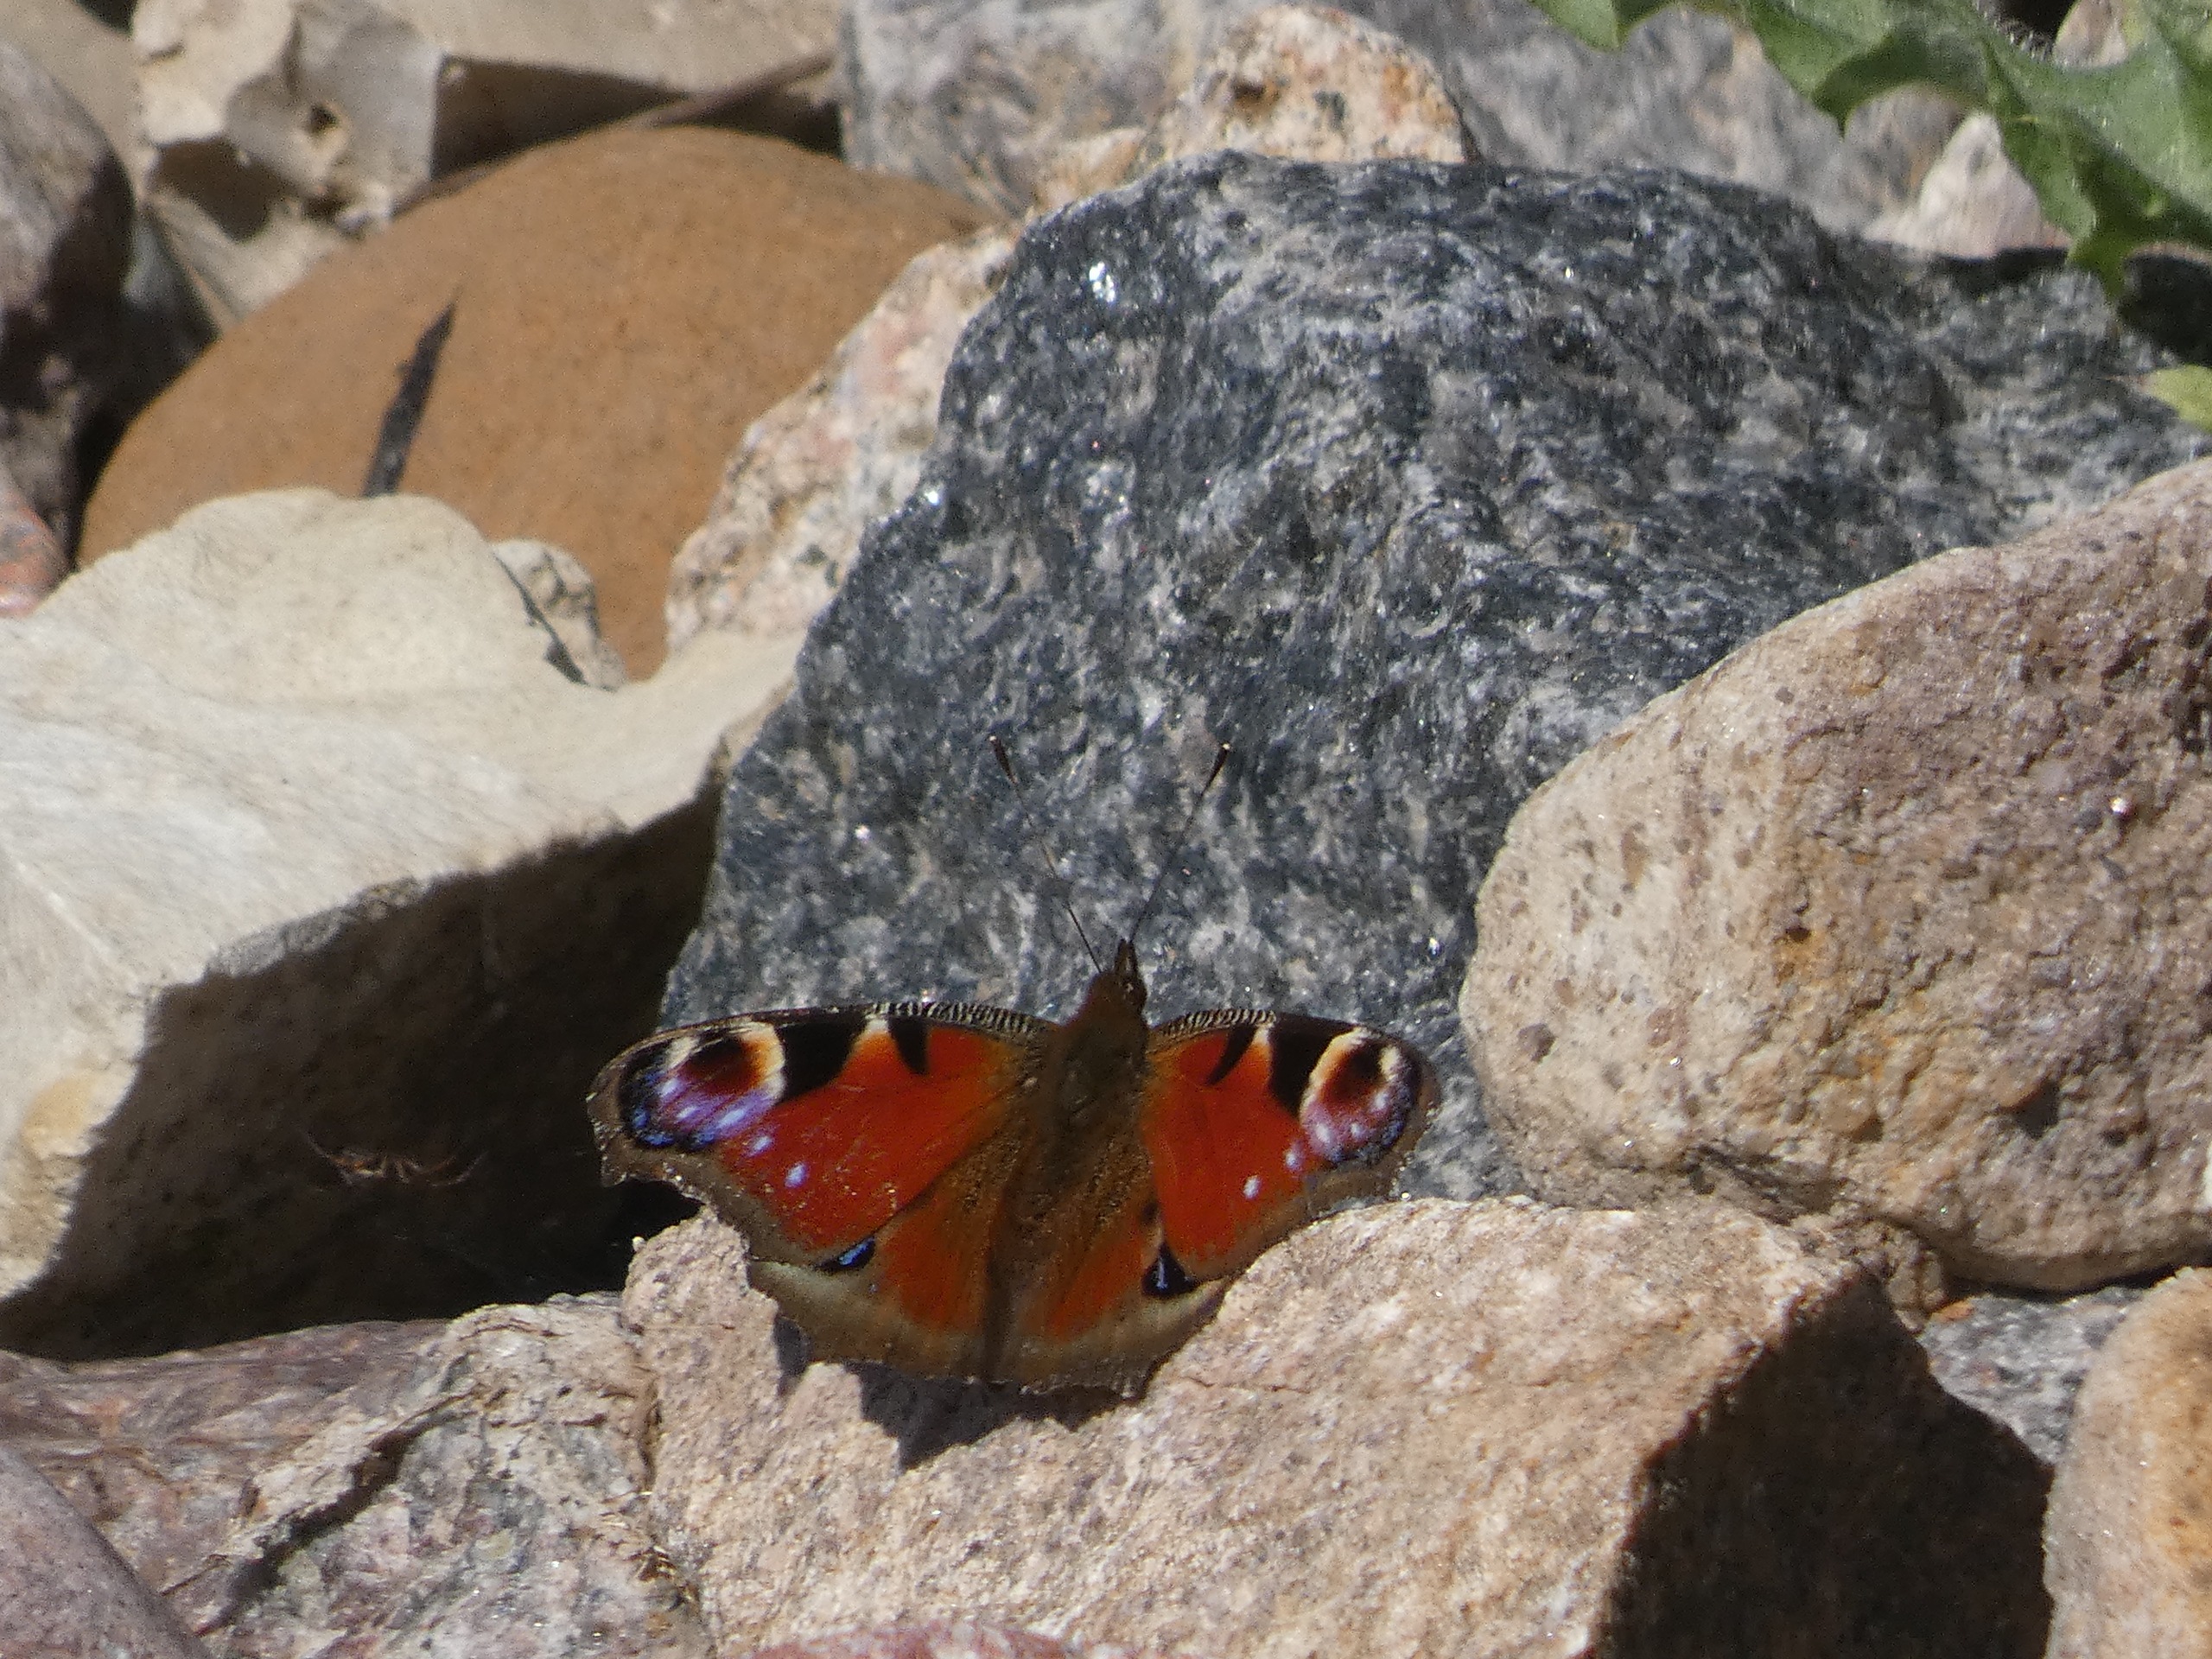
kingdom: Animalia
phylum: Arthropoda
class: Insecta
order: Lepidoptera
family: Nymphalidae
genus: Aglais
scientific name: Aglais io
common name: Dagpåfugleøje
